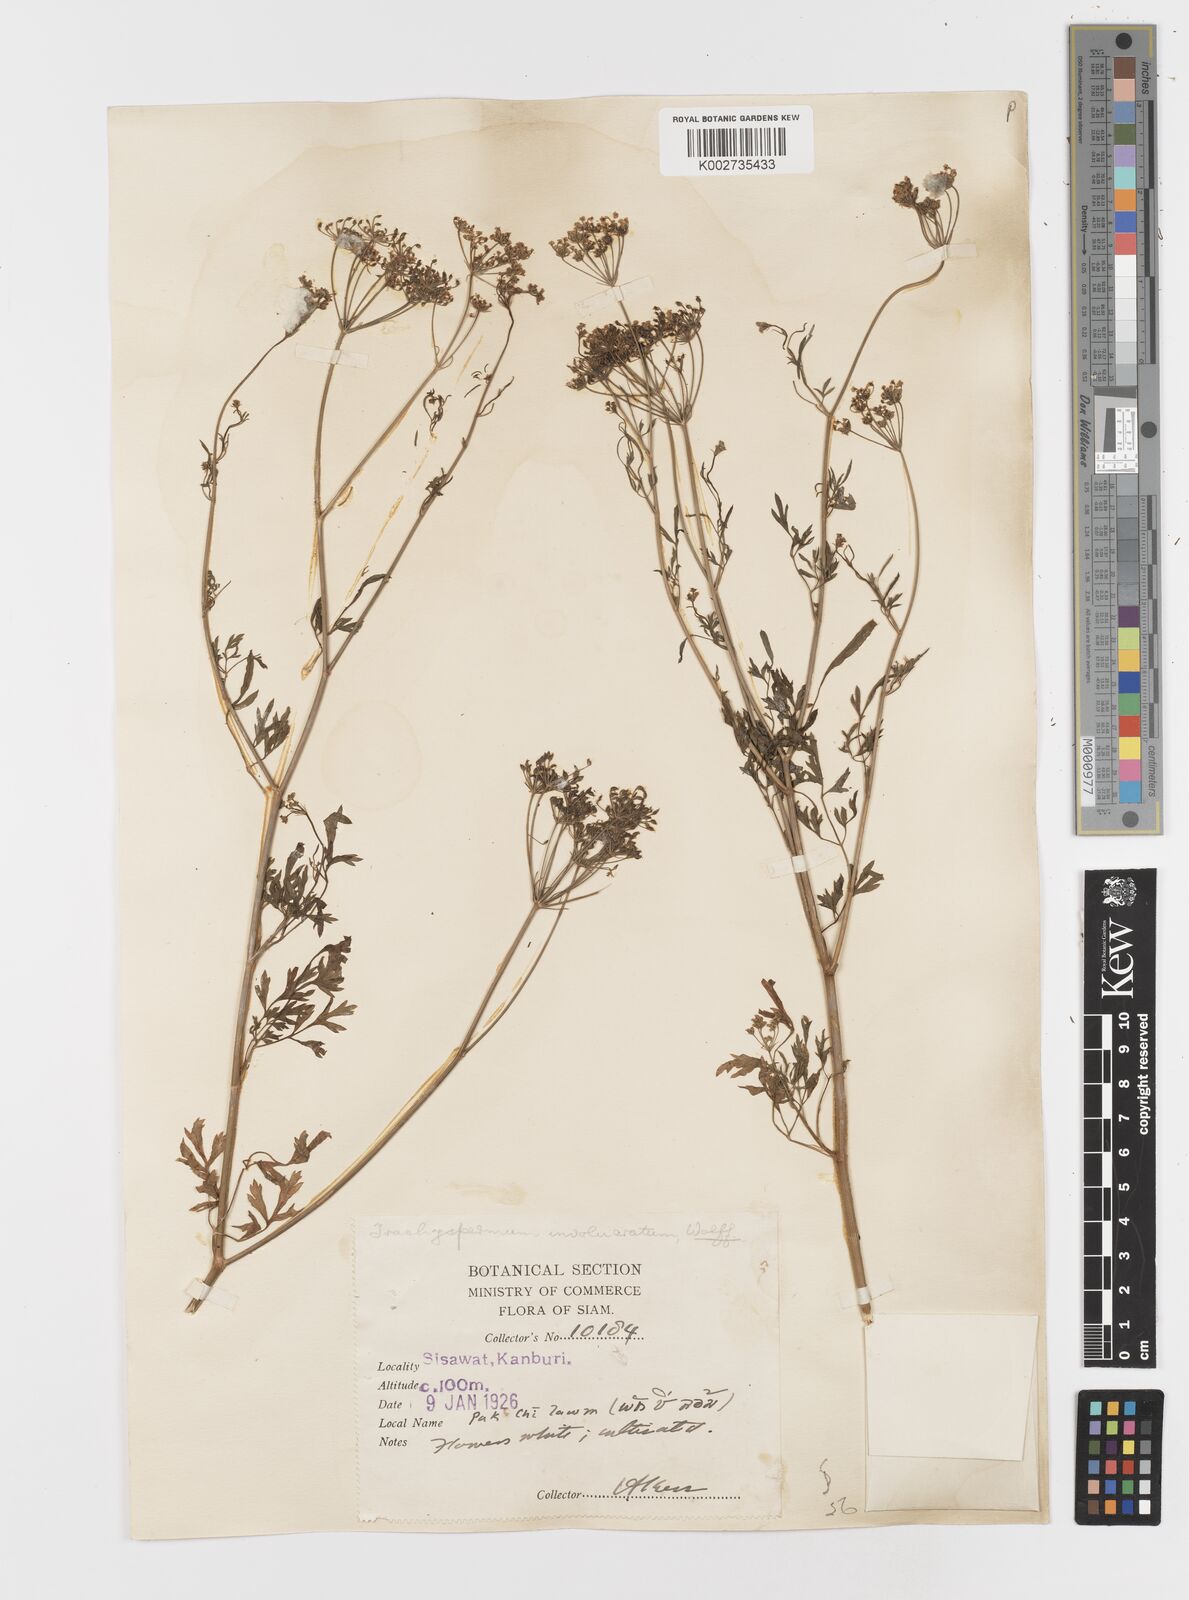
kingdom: Plantae
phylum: Tracheophyta
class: Magnoliopsida
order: Apiales
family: Apiaceae
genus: Psammogeton
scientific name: Psammogeton involucratum
